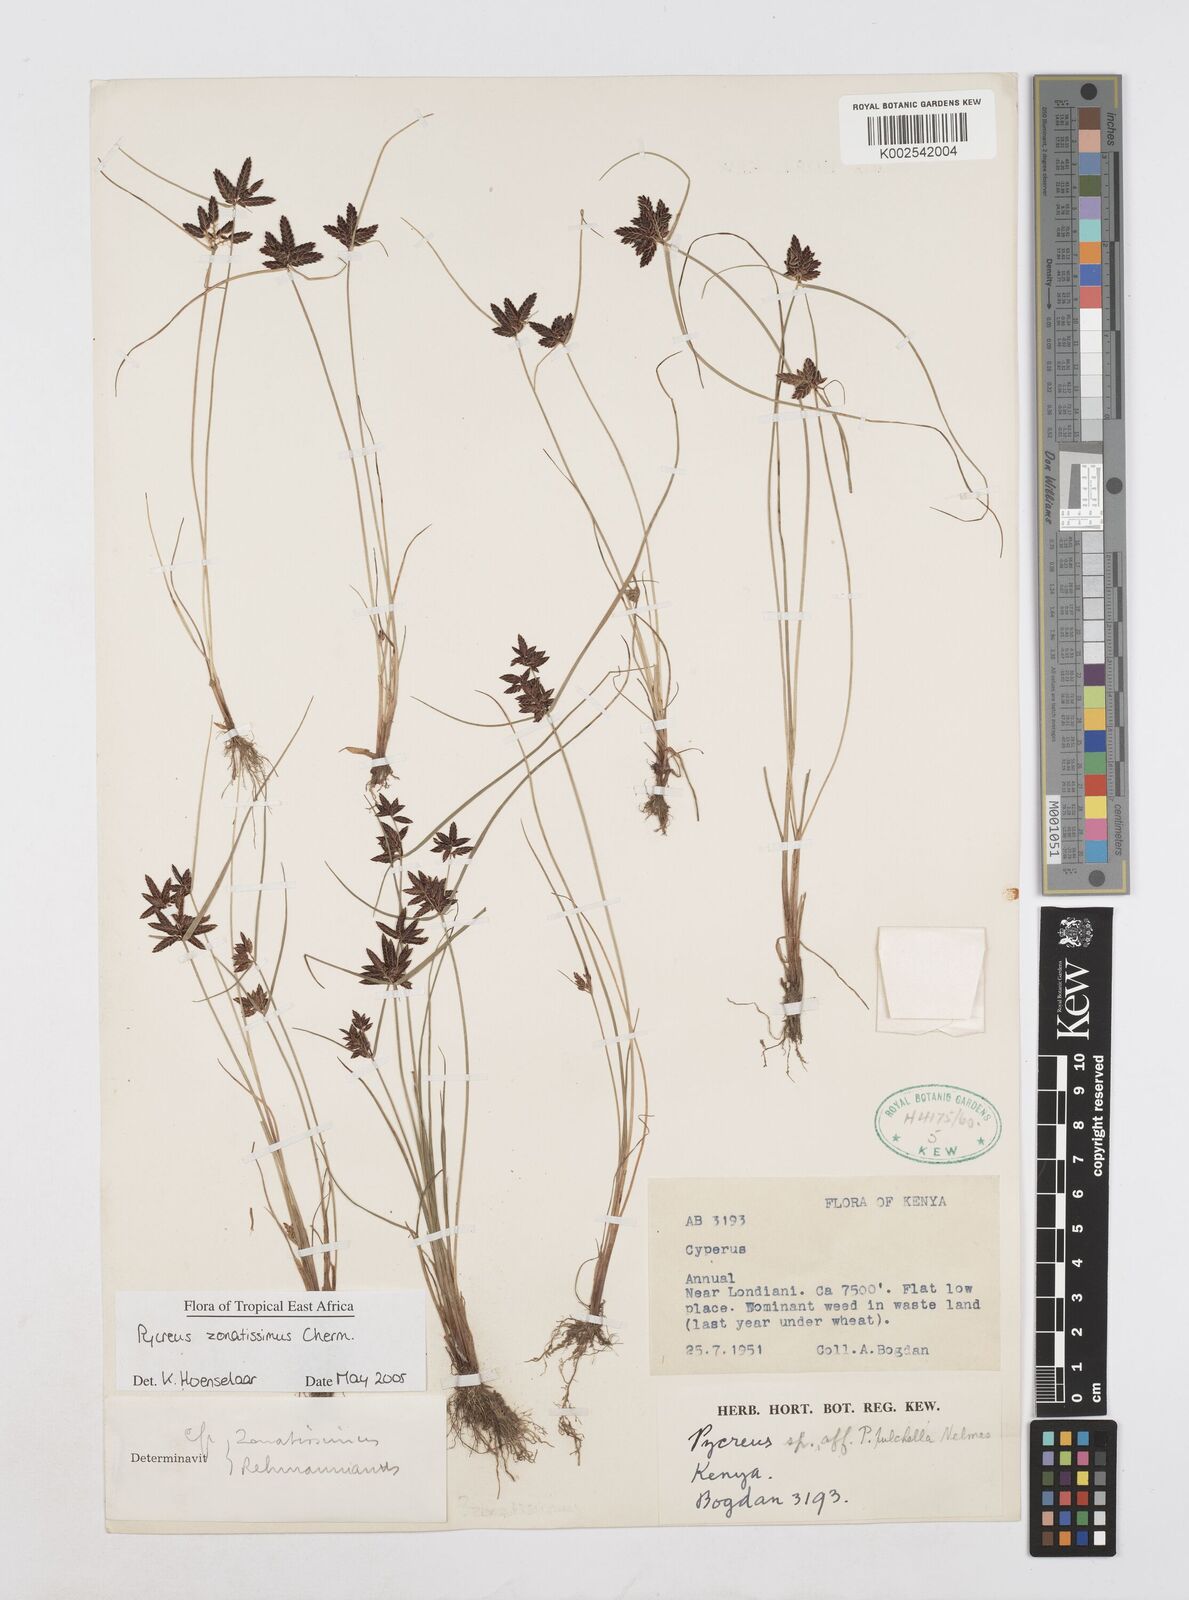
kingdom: Plantae
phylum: Tracheophyta
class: Liliopsida
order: Poales
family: Cyperaceae
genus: Cyperus
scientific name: Cyperus zonatissimus
